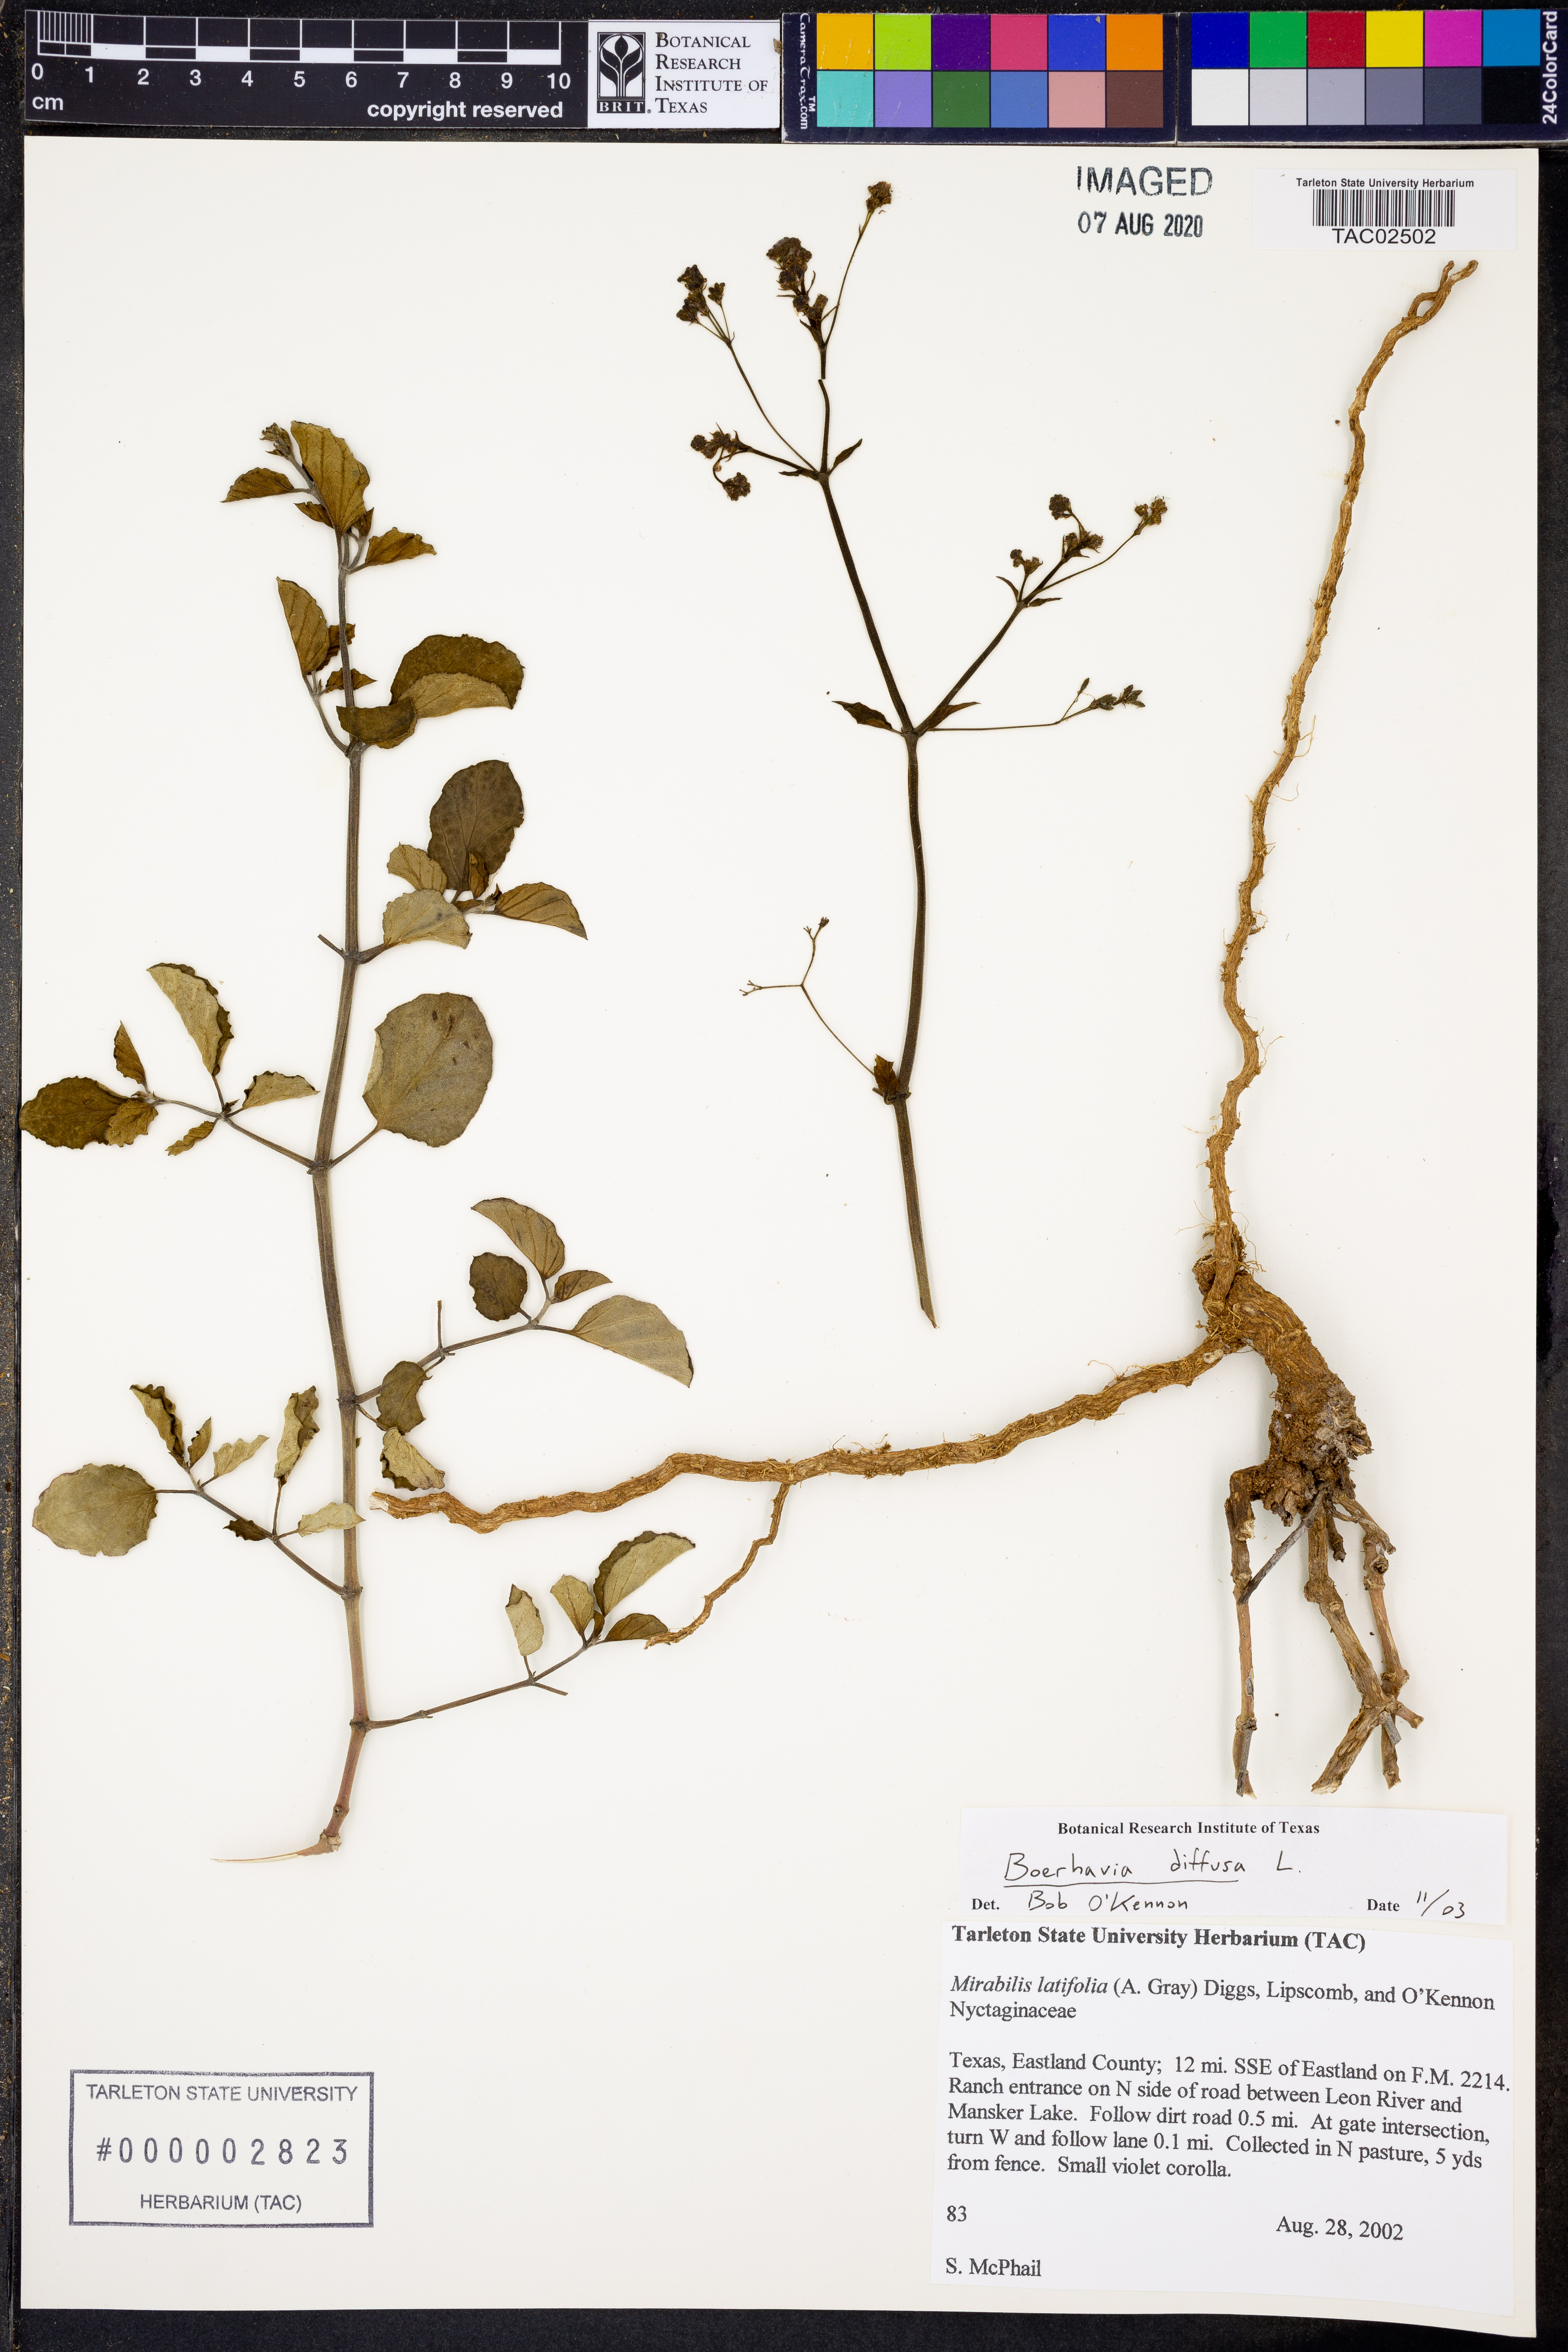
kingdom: Plantae
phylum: Tracheophyta
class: Magnoliopsida
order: Caryophyllales
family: Nyctaginaceae
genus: Boerhavia
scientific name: Boerhavia diffusa
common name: Red spiderling
